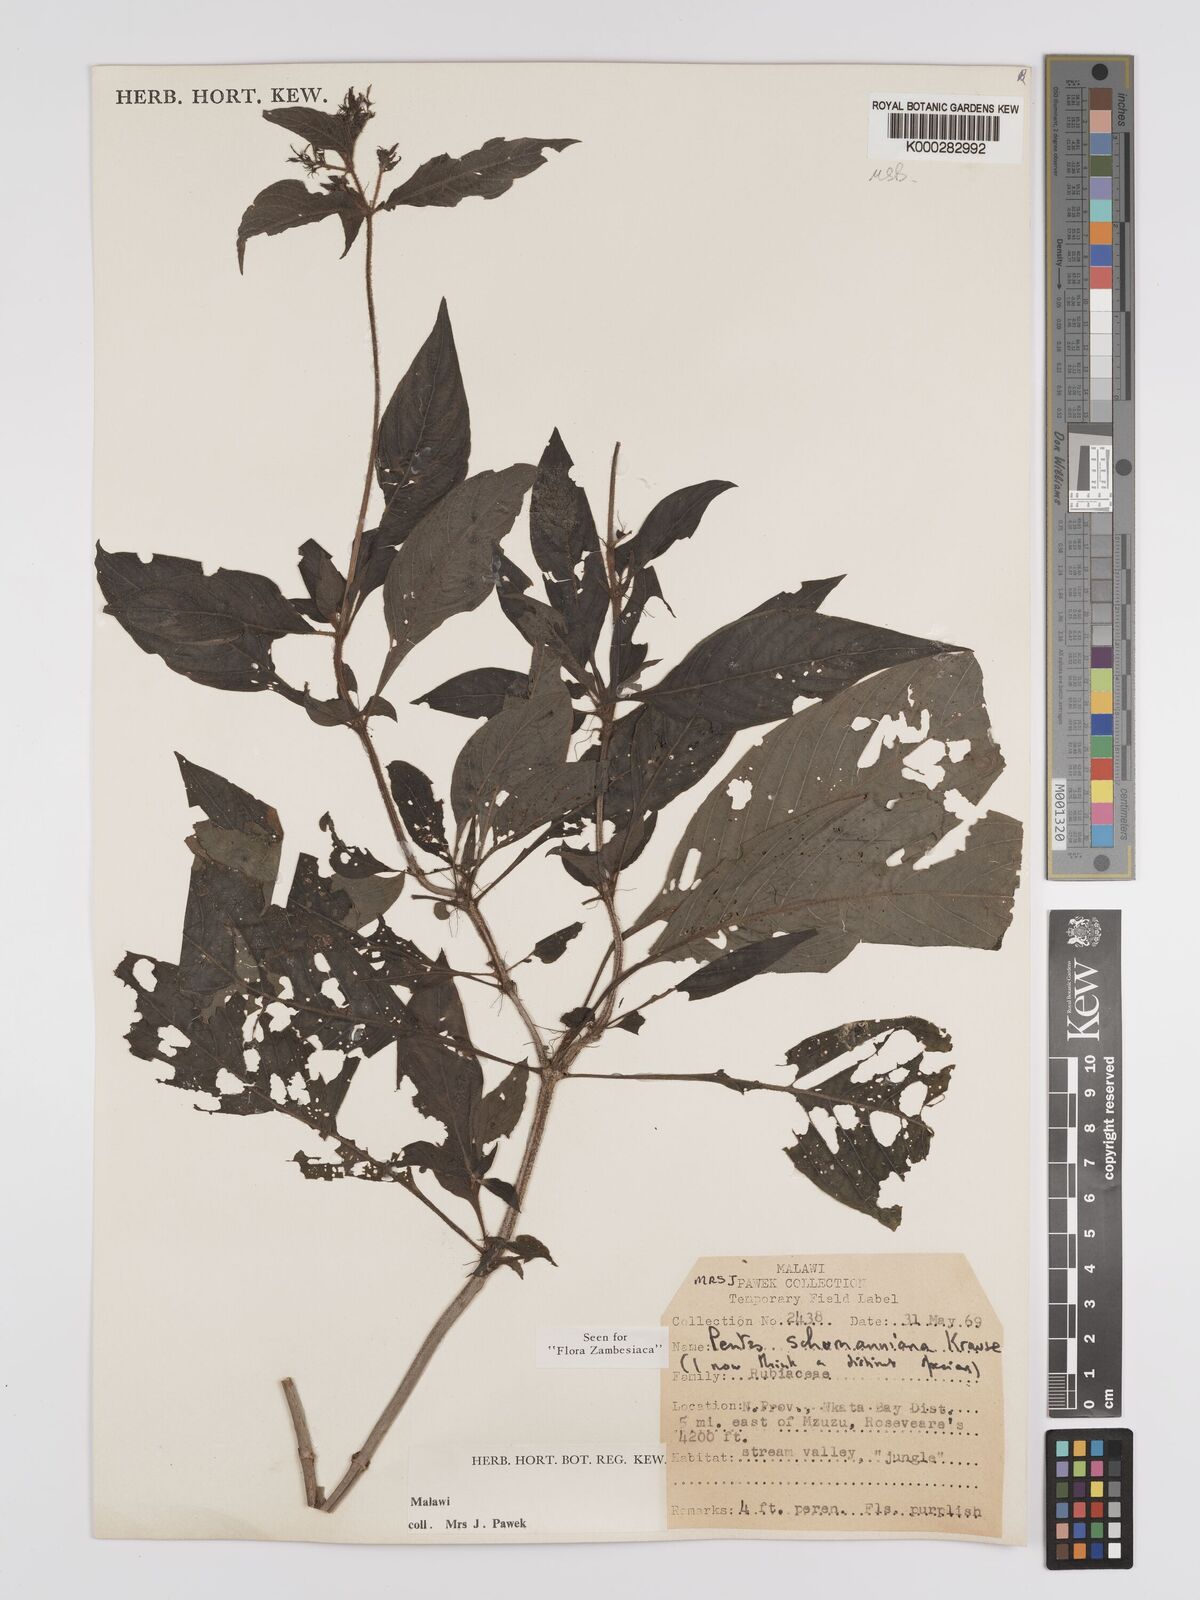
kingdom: Plantae
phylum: Tracheophyta
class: Magnoliopsida
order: Gentianales
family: Rubiaceae
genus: Phyllopentas
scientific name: Phyllopentas schumanniana
